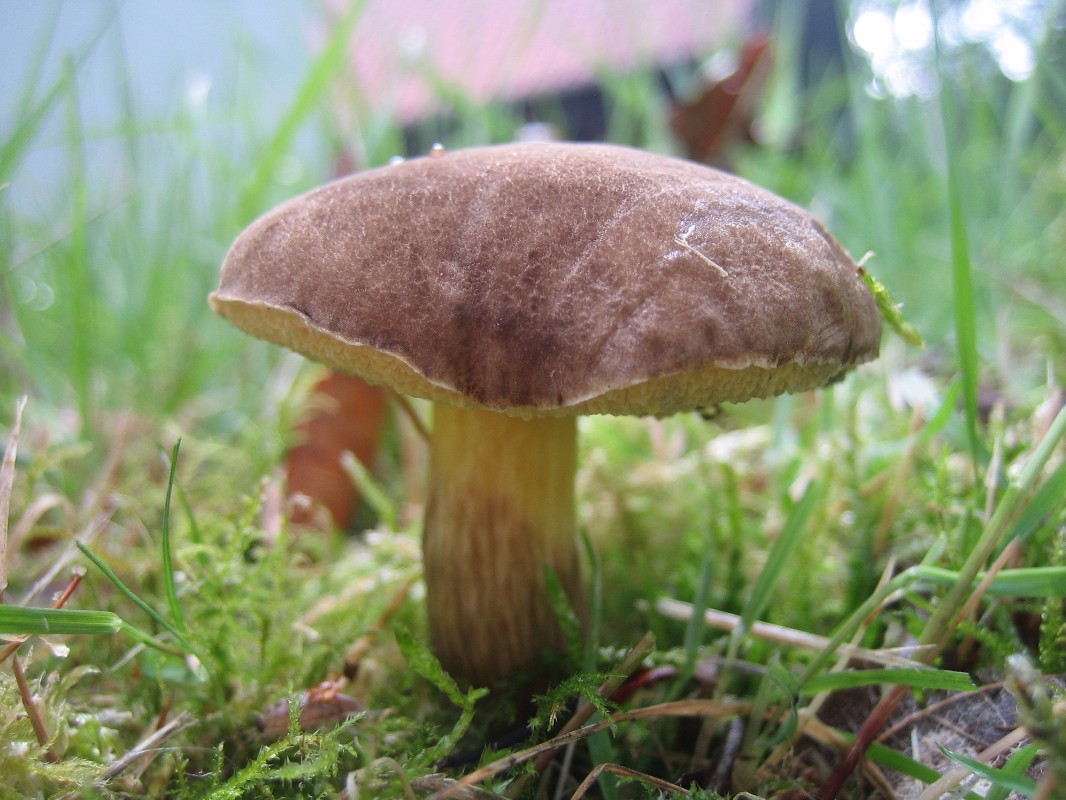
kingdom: Fungi
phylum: Basidiomycota
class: Agaricomycetes
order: Boletales
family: Boletaceae
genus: Xerocomellus
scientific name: Xerocomellus chrysenteron
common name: rødsprukken rørhat
